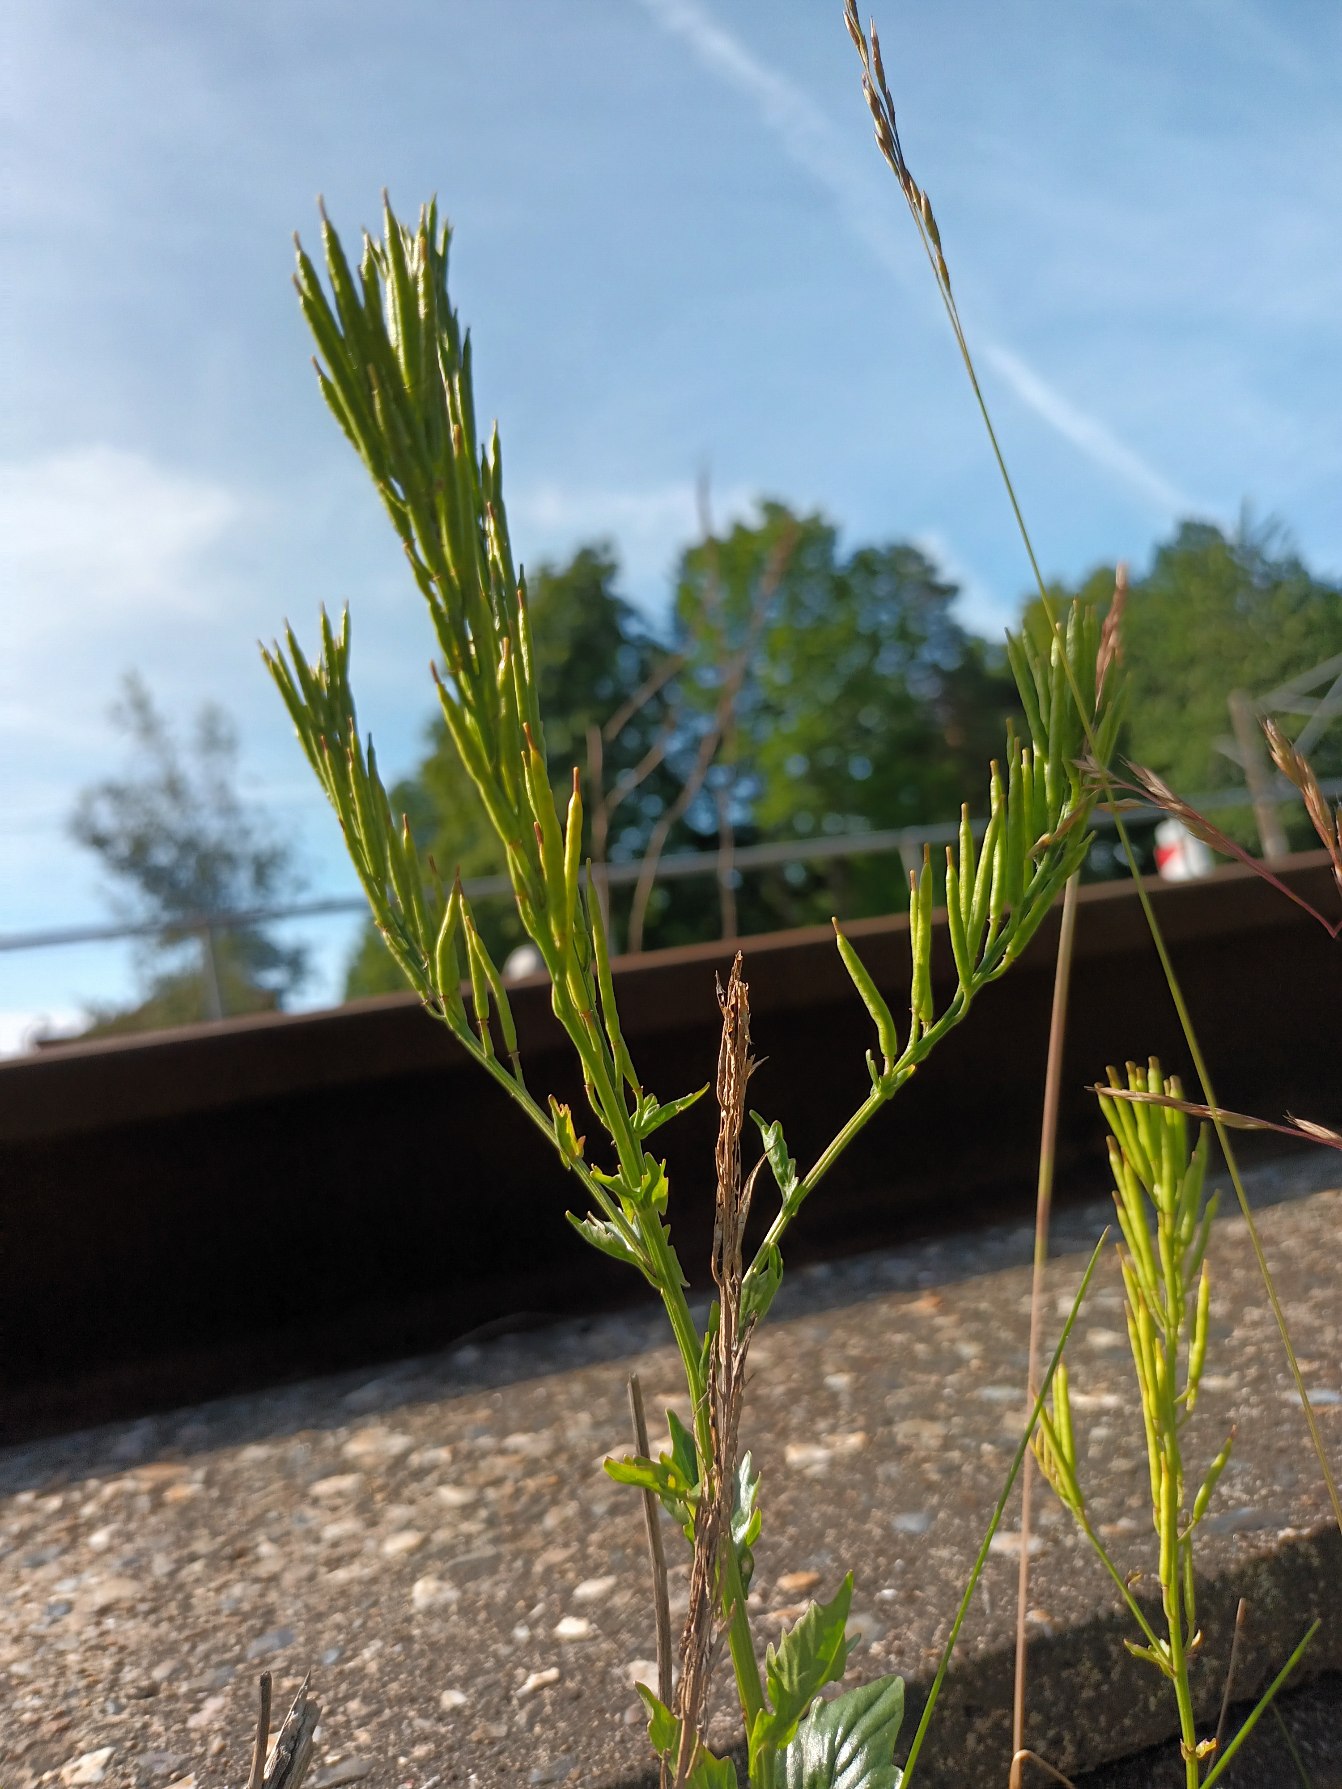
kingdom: Plantae
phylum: Tracheophyta
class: Magnoliopsida
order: Brassicales
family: Brassicaceae
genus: Barbarea
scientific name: Barbarea vulgaris
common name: Almindelig vinterkarse (varietet)
